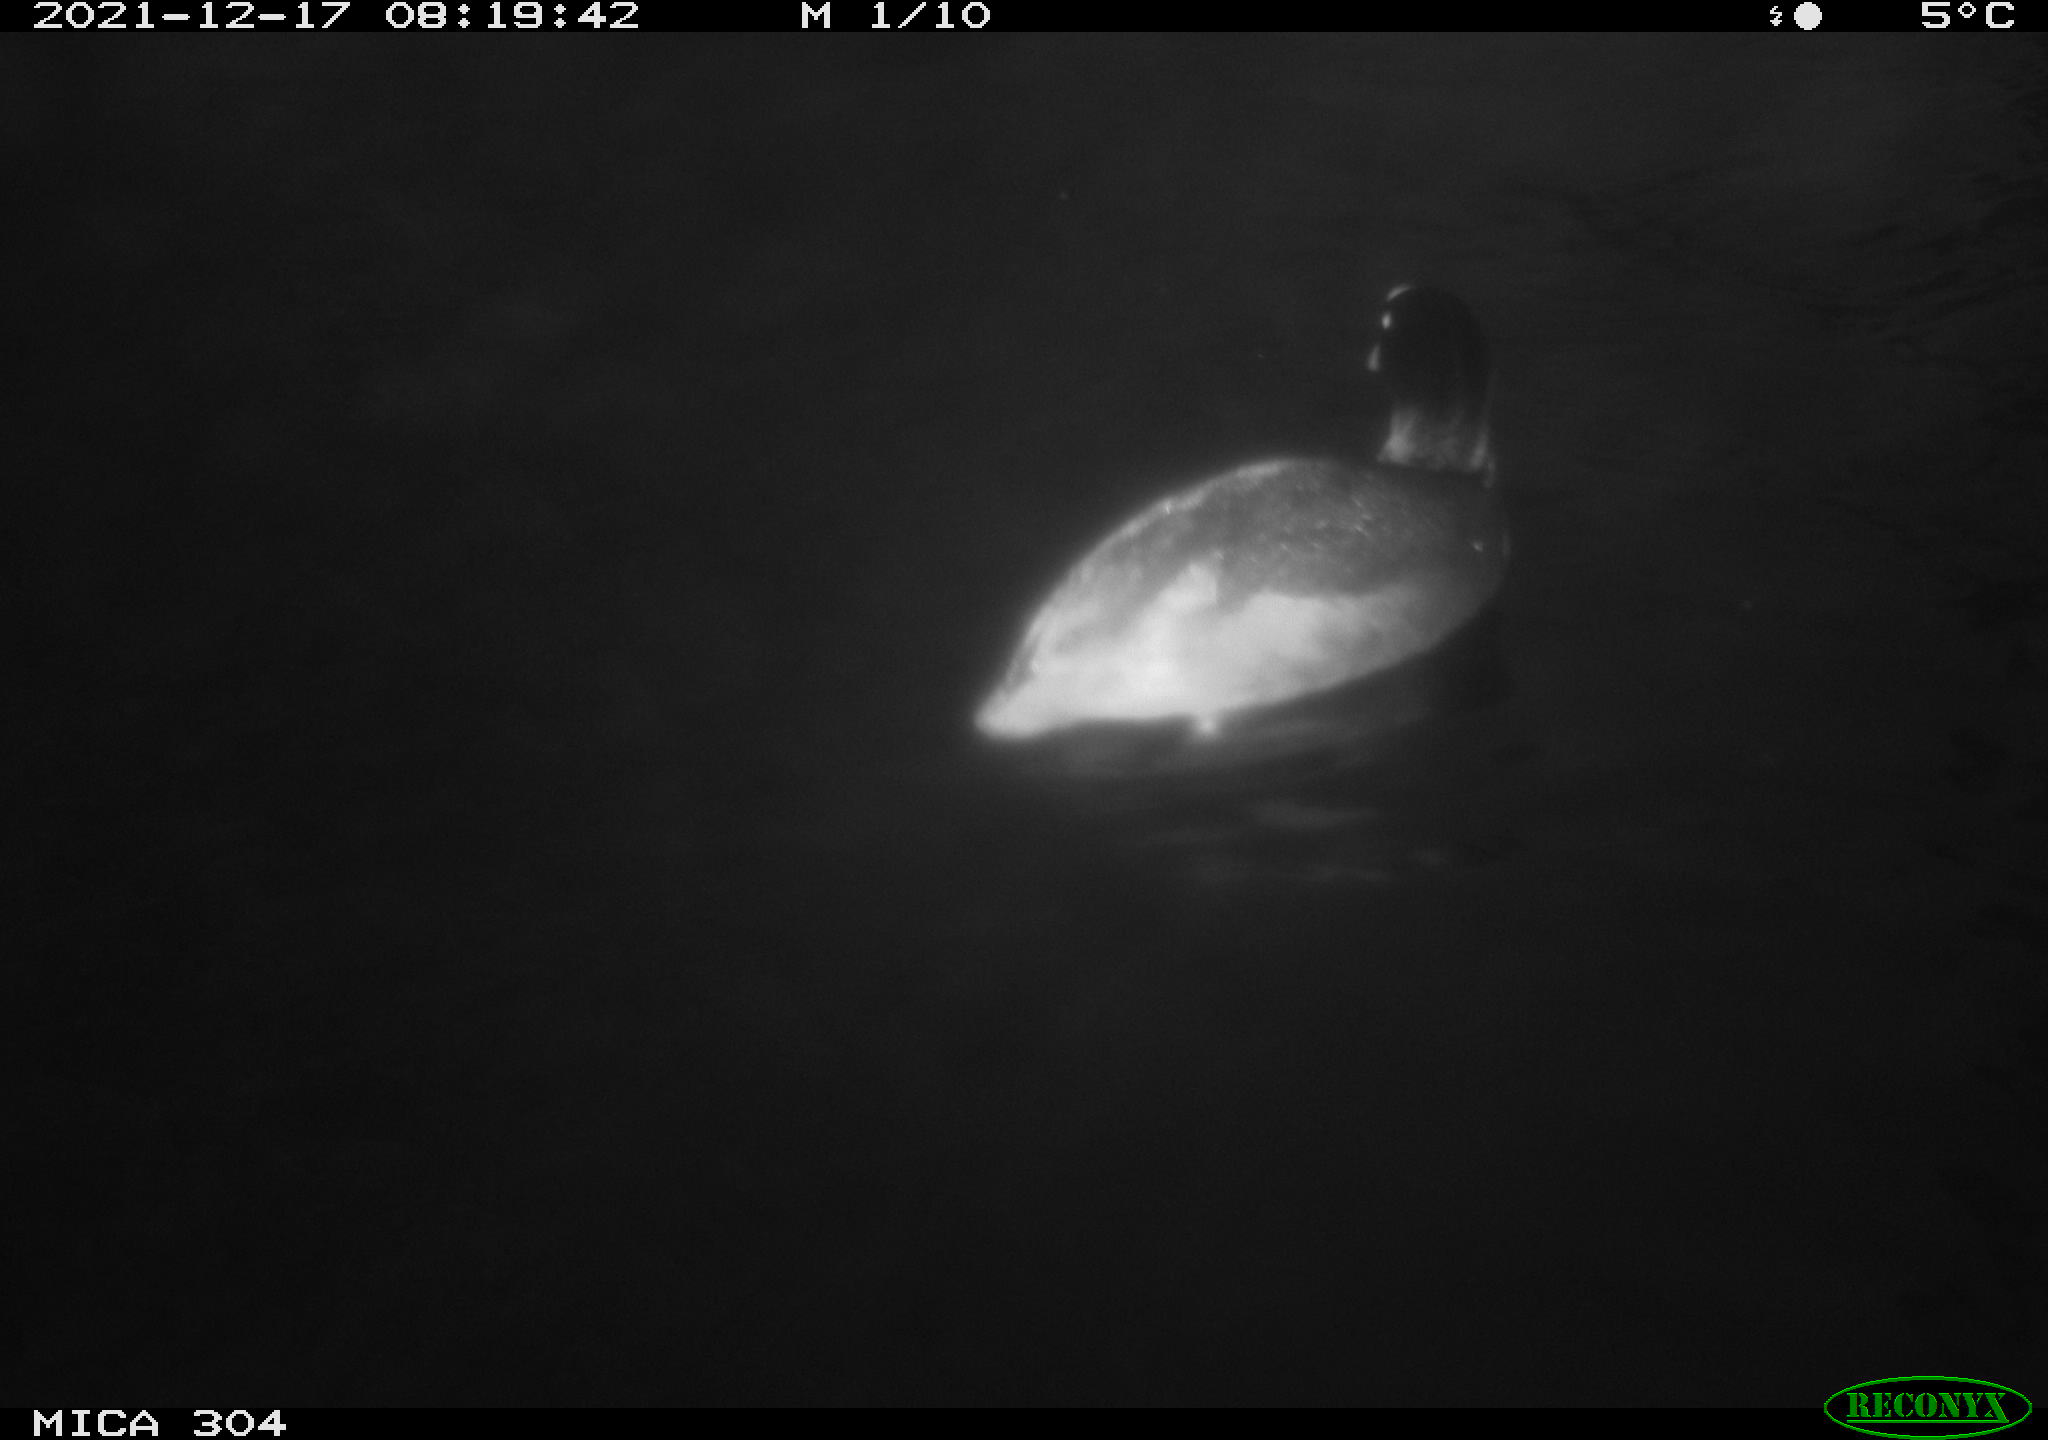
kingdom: Animalia
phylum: Chordata
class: Aves
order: Anseriformes
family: Anatidae
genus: Anas
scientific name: Anas
